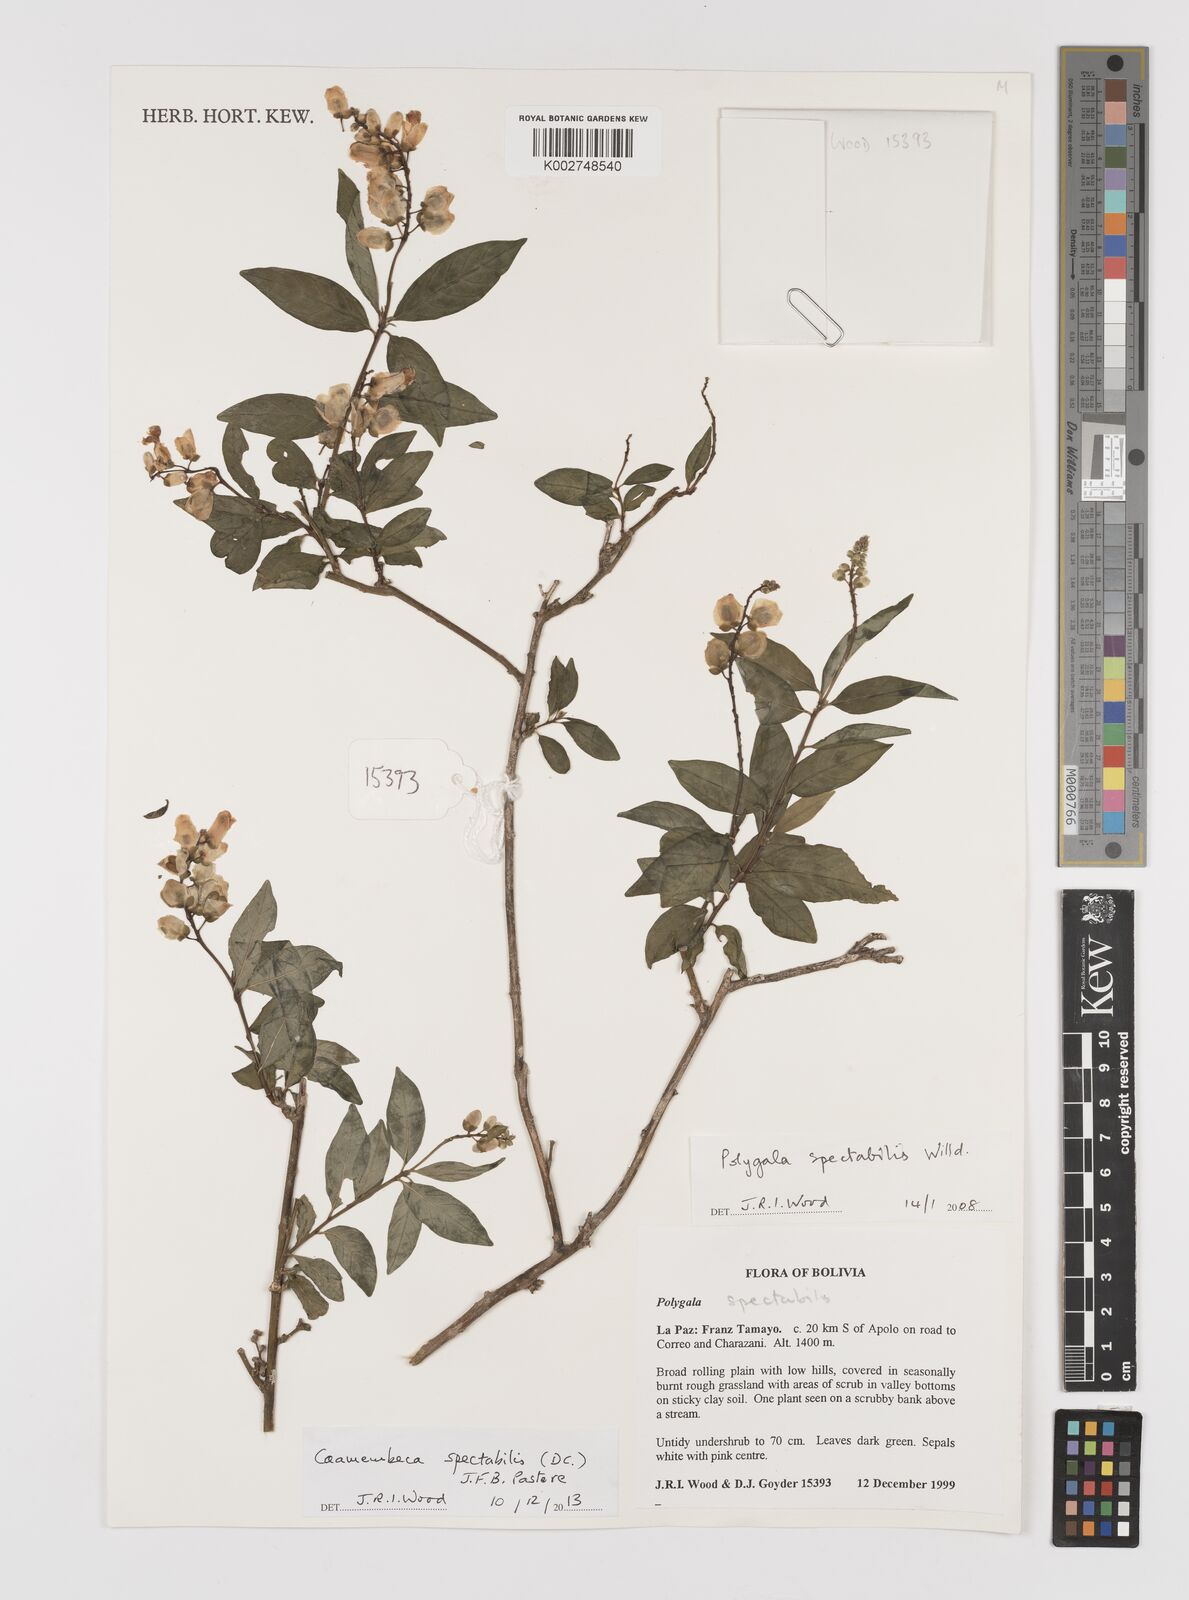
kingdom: Plantae
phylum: Tracheophyta
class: Magnoliopsida
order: Fabales
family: Polygalaceae
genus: Caamembeca
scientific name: Caamembeca spectabilis
